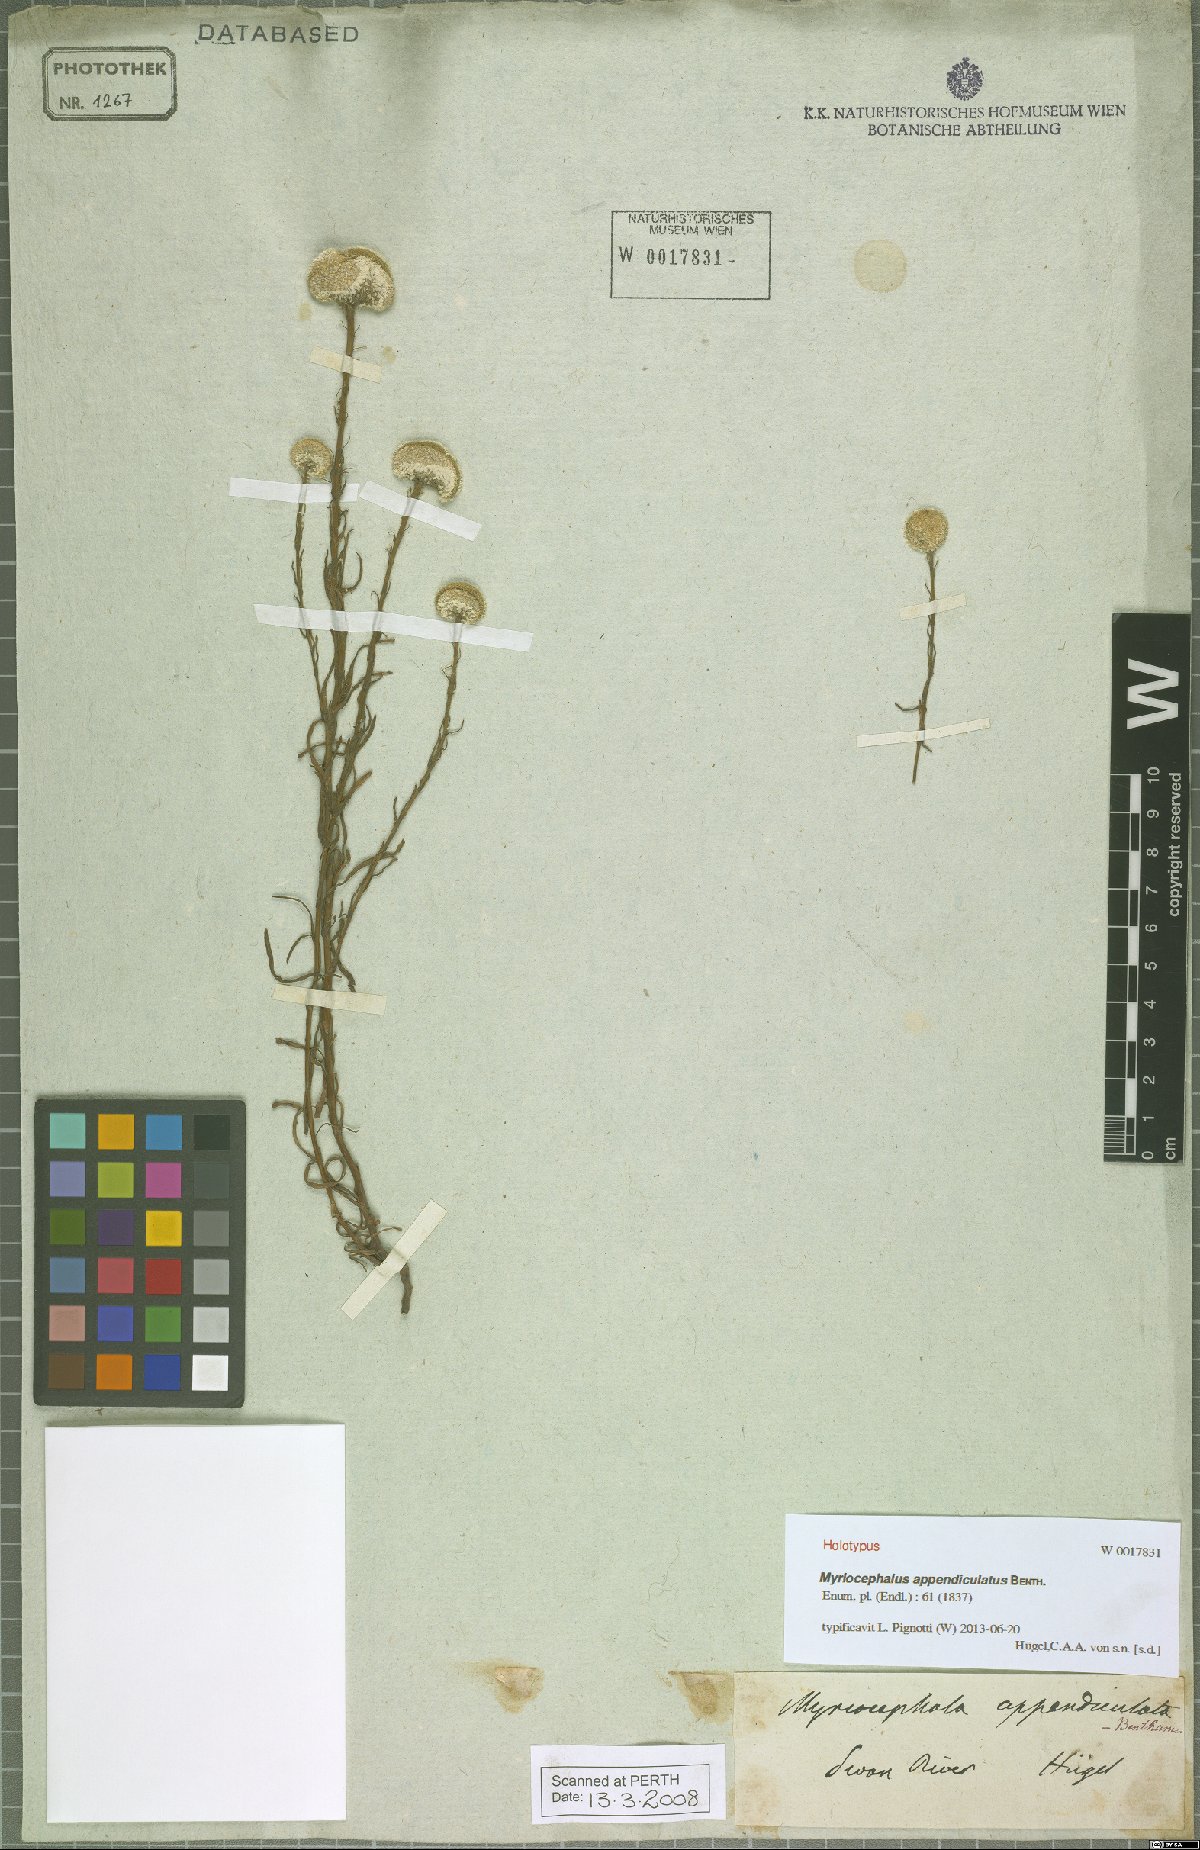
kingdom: Plantae
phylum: Tracheophyta
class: Magnoliopsida
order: Asterales
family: Asteraceae
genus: Myriocephalus
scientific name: Myriocephalus appendiculatus
